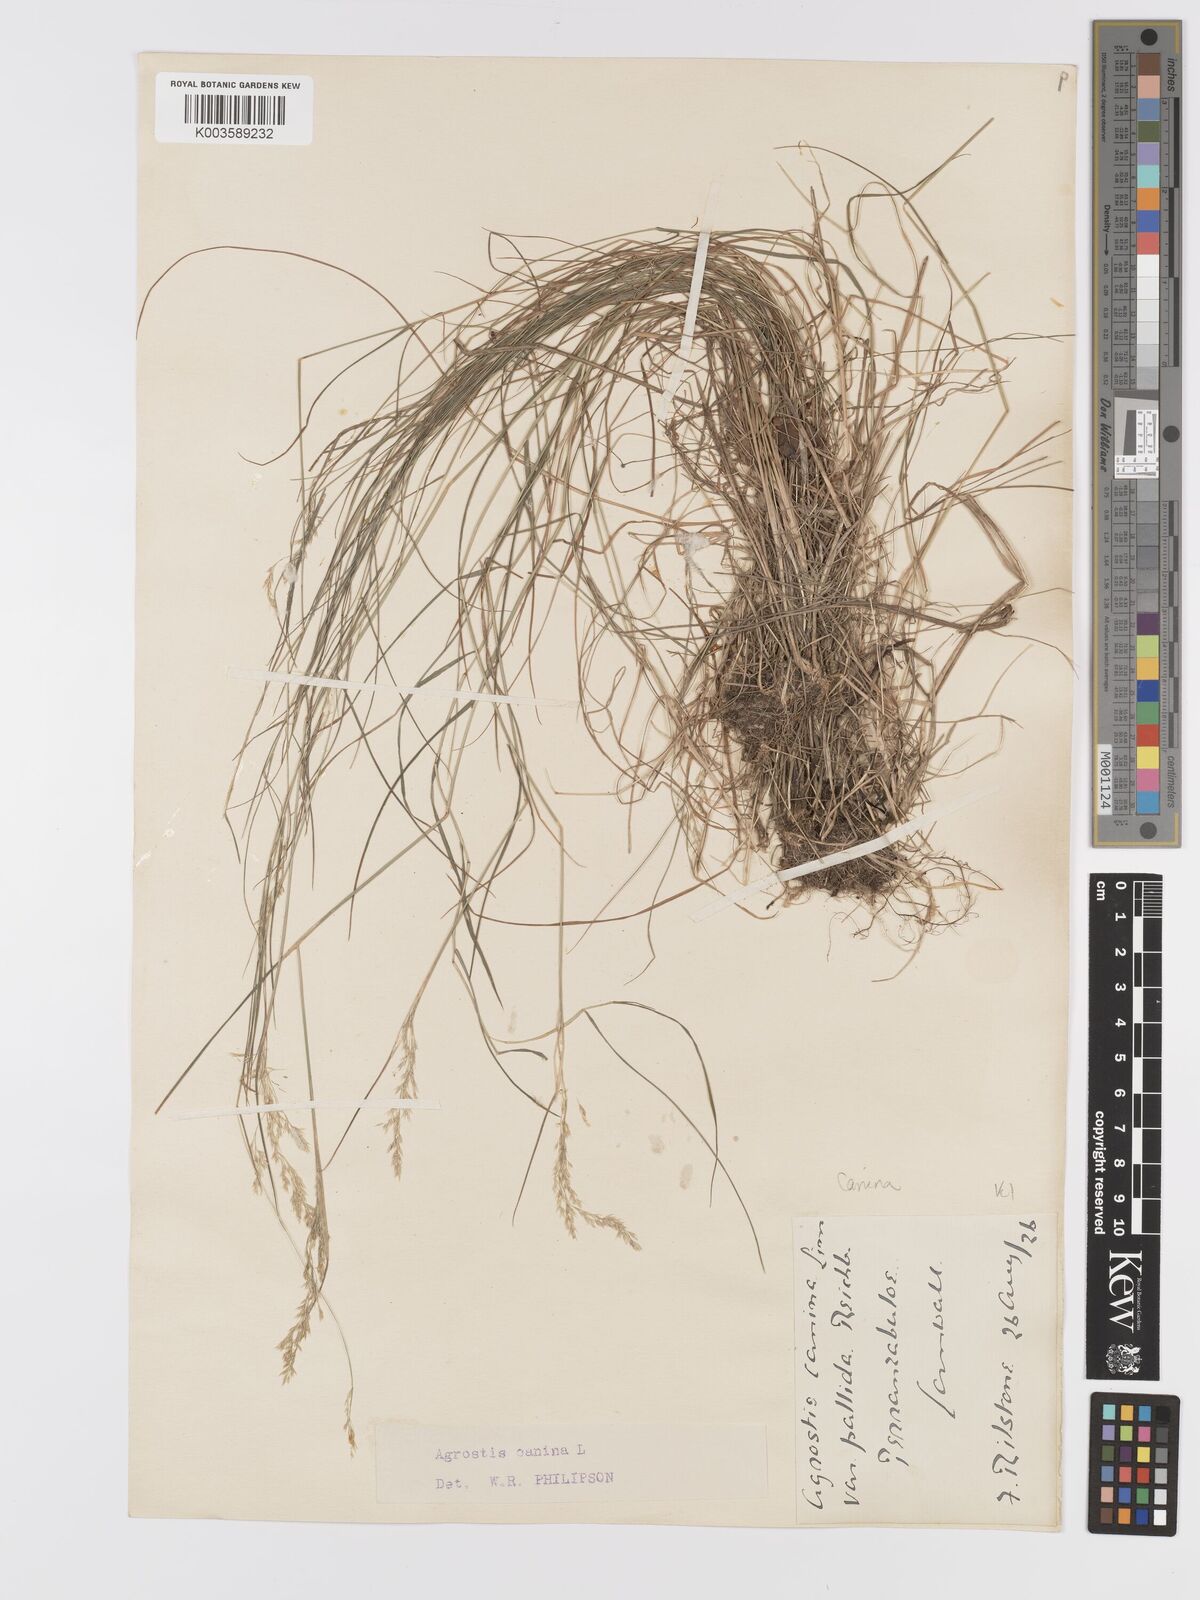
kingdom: Plantae
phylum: Tracheophyta
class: Liliopsida
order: Poales
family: Poaceae
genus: Agrostis
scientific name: Agrostis canina
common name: Velvet bent
